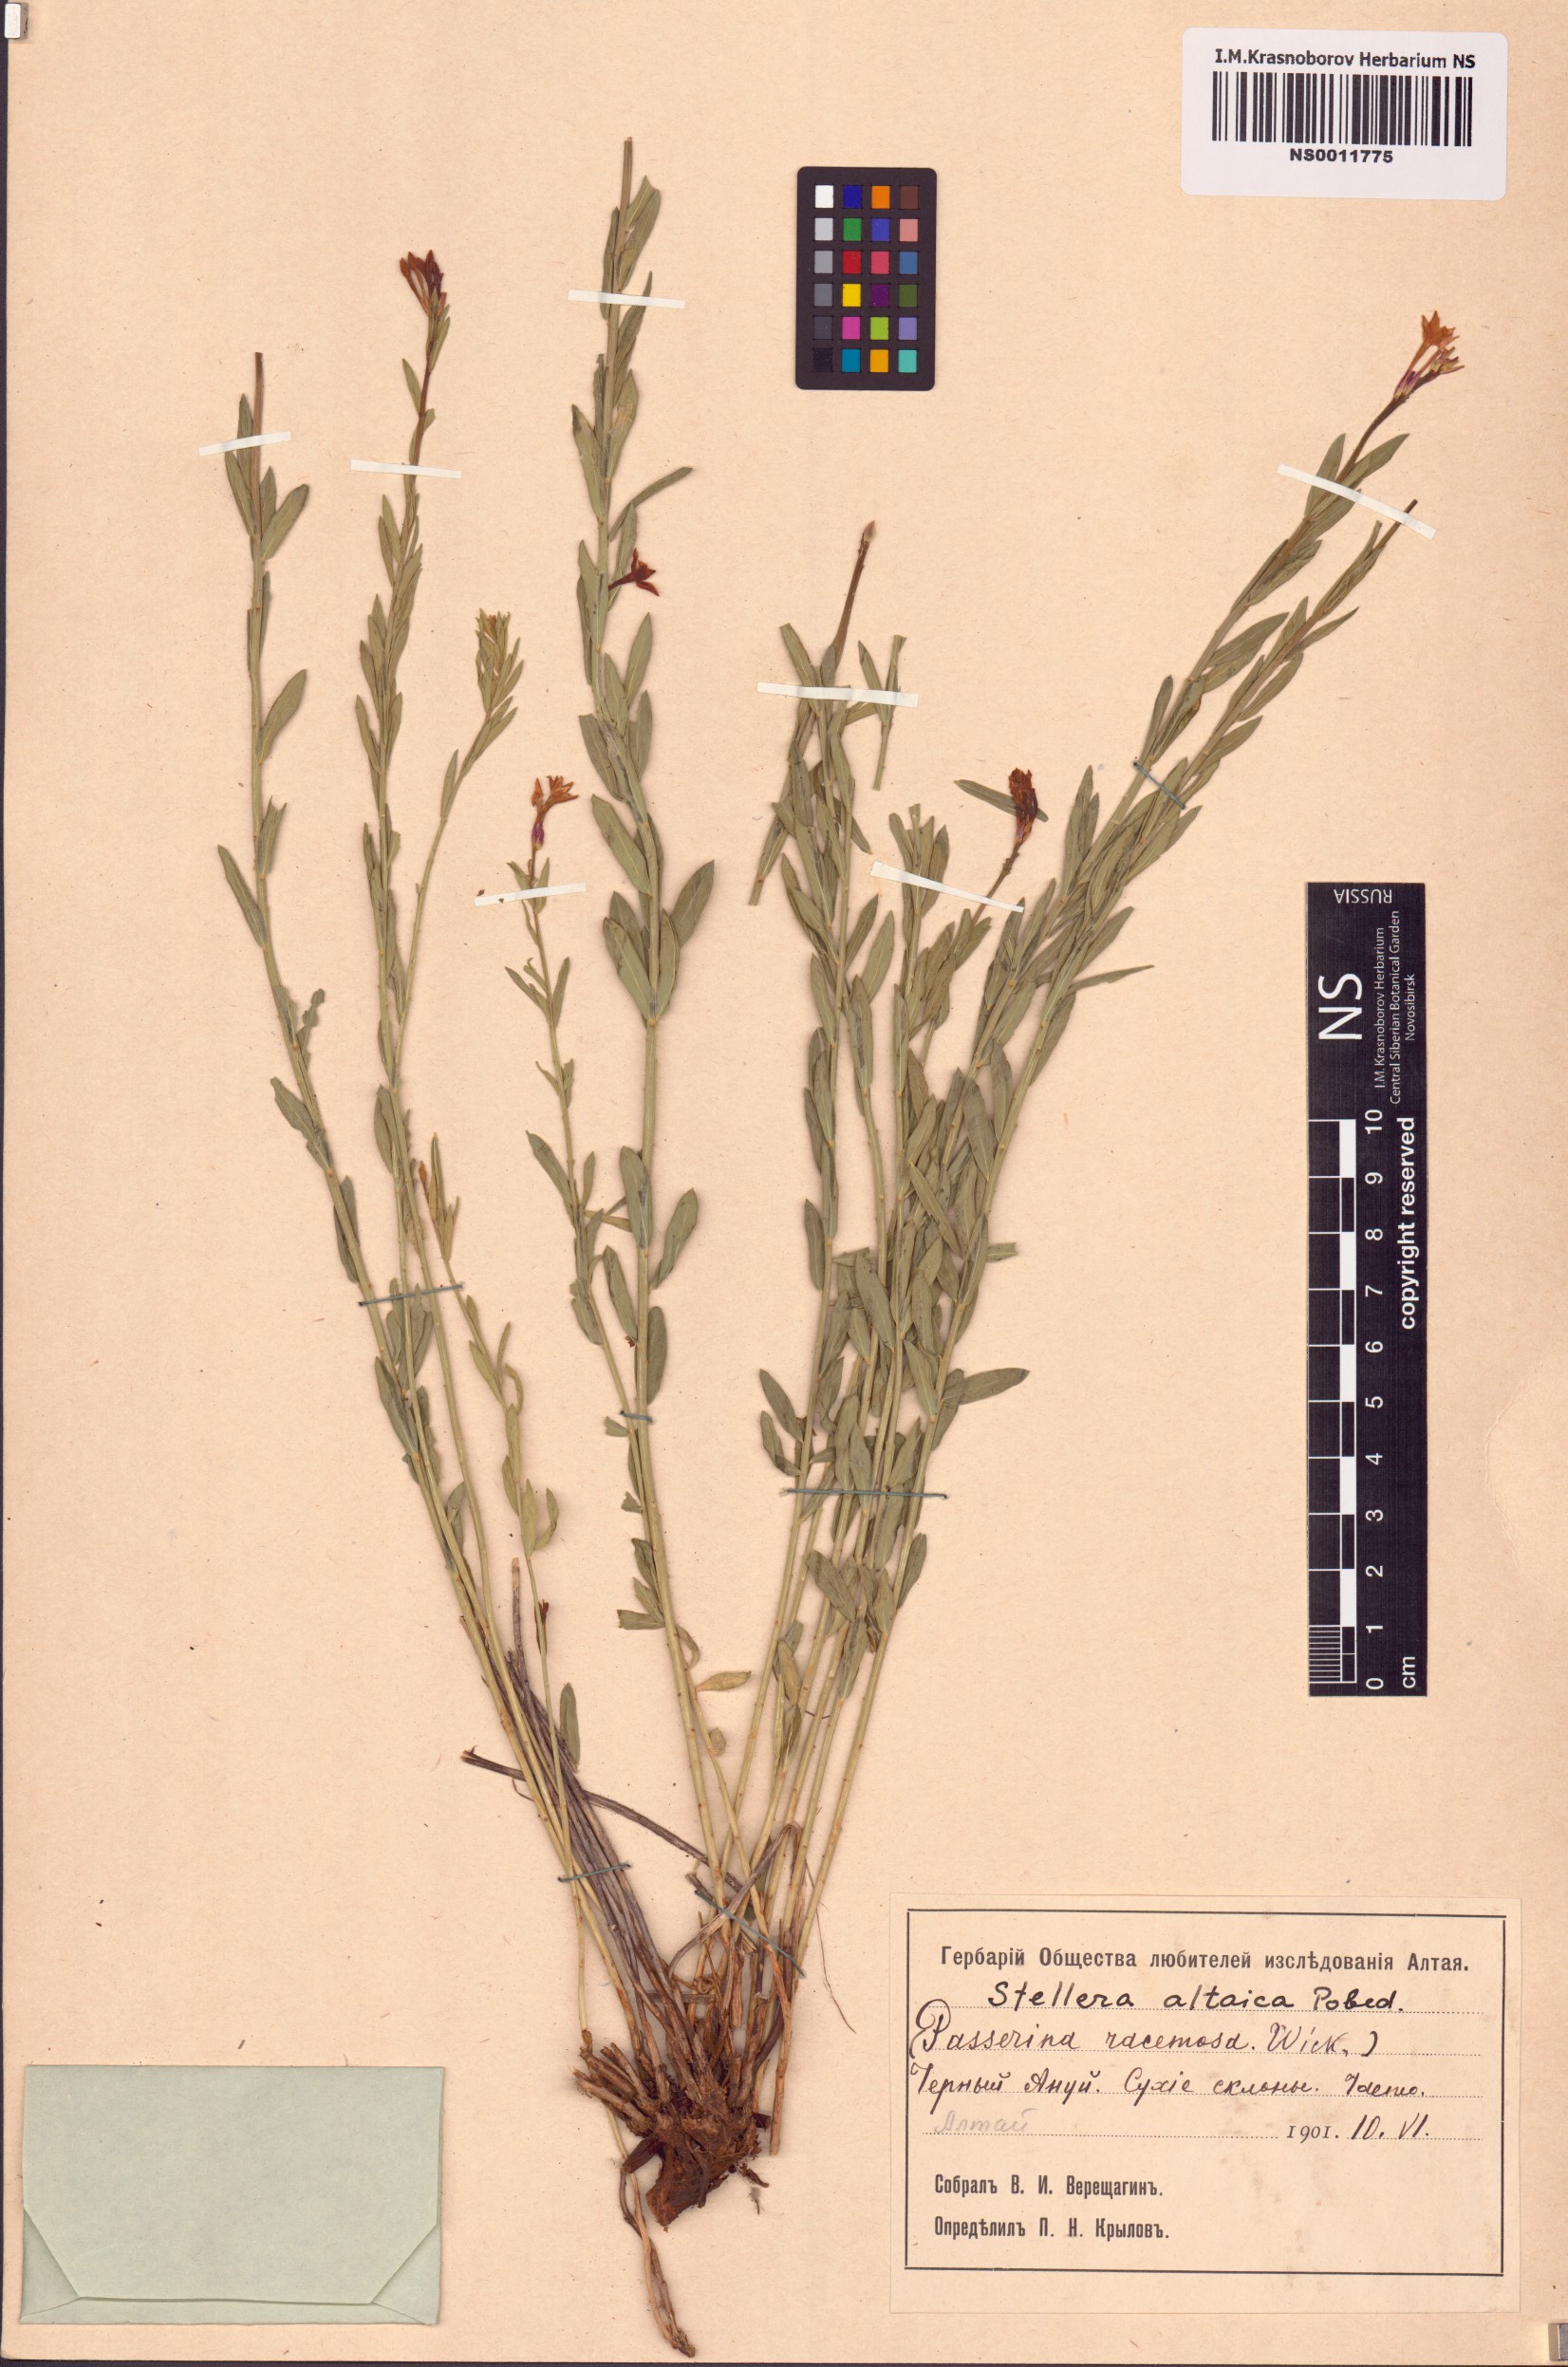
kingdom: Plantae
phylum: Tracheophyta
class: Magnoliopsida
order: Malvales
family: Thymelaeaceae
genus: Diarthron
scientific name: Diarthron altaicum
